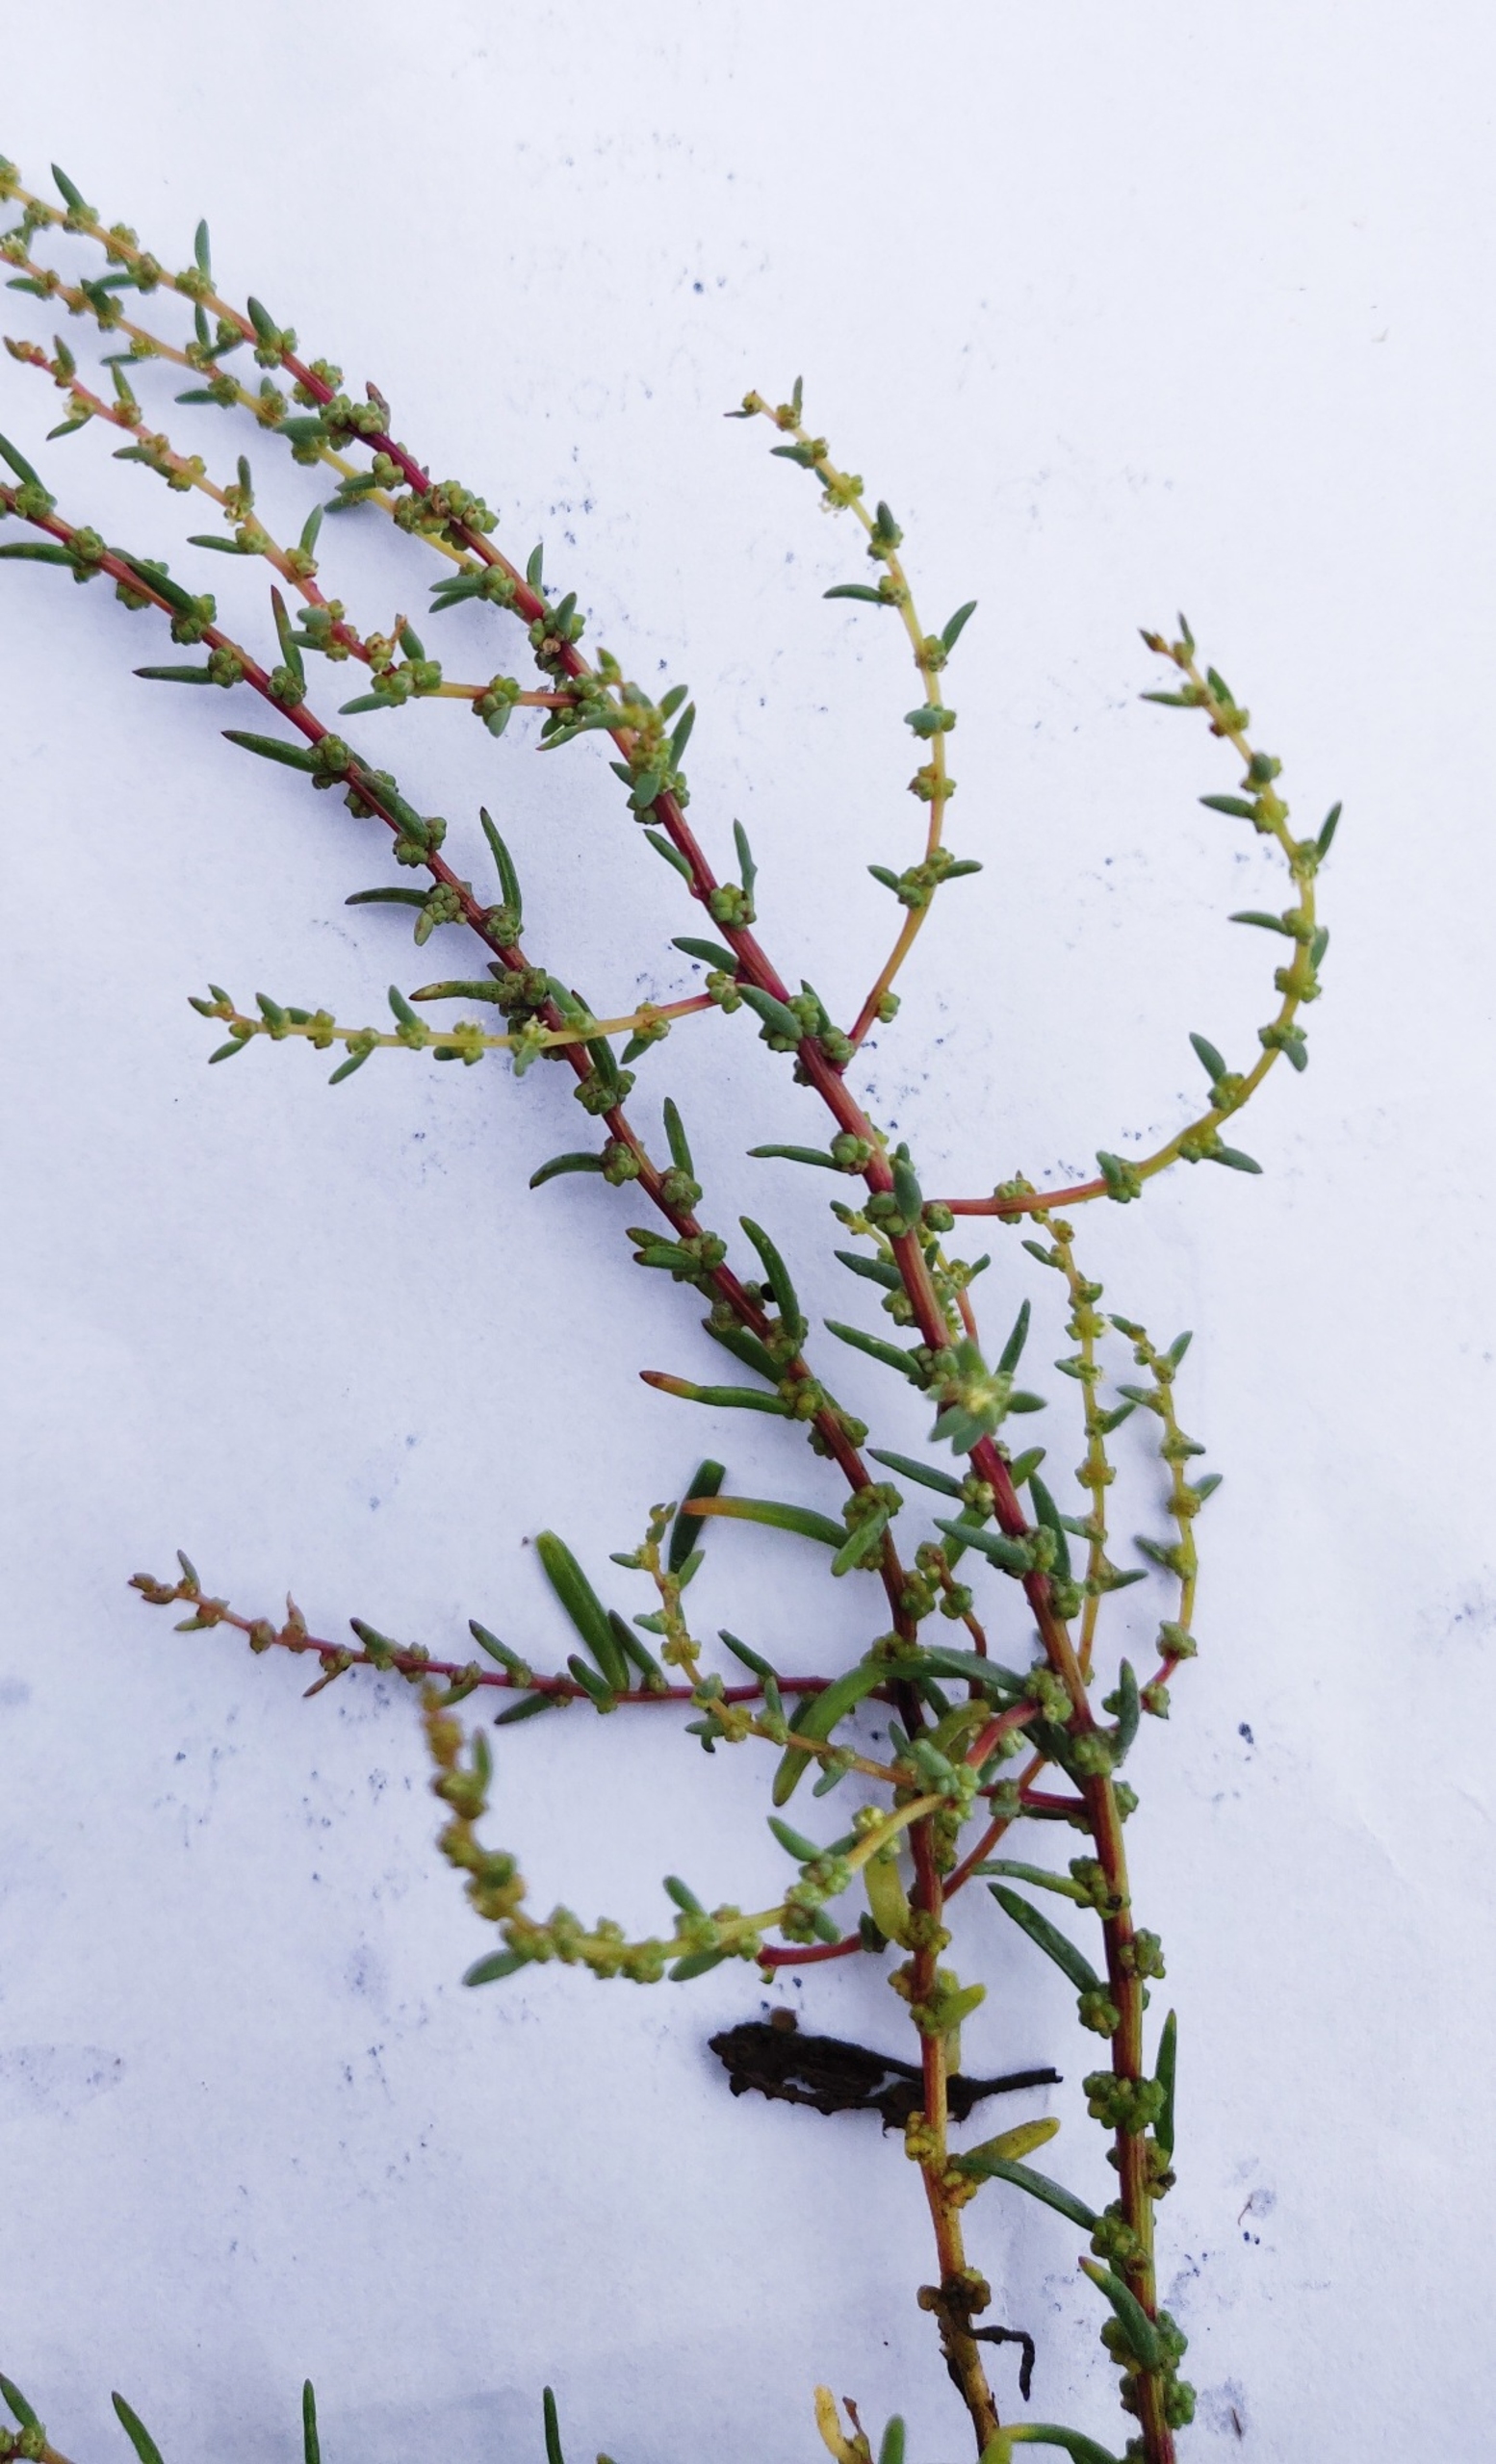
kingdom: Plantae
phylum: Tracheophyta
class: Magnoliopsida
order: Caryophyllales
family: Amaranthaceae
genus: Suaeda
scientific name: Suaeda maritima
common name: Strandgåsefod
